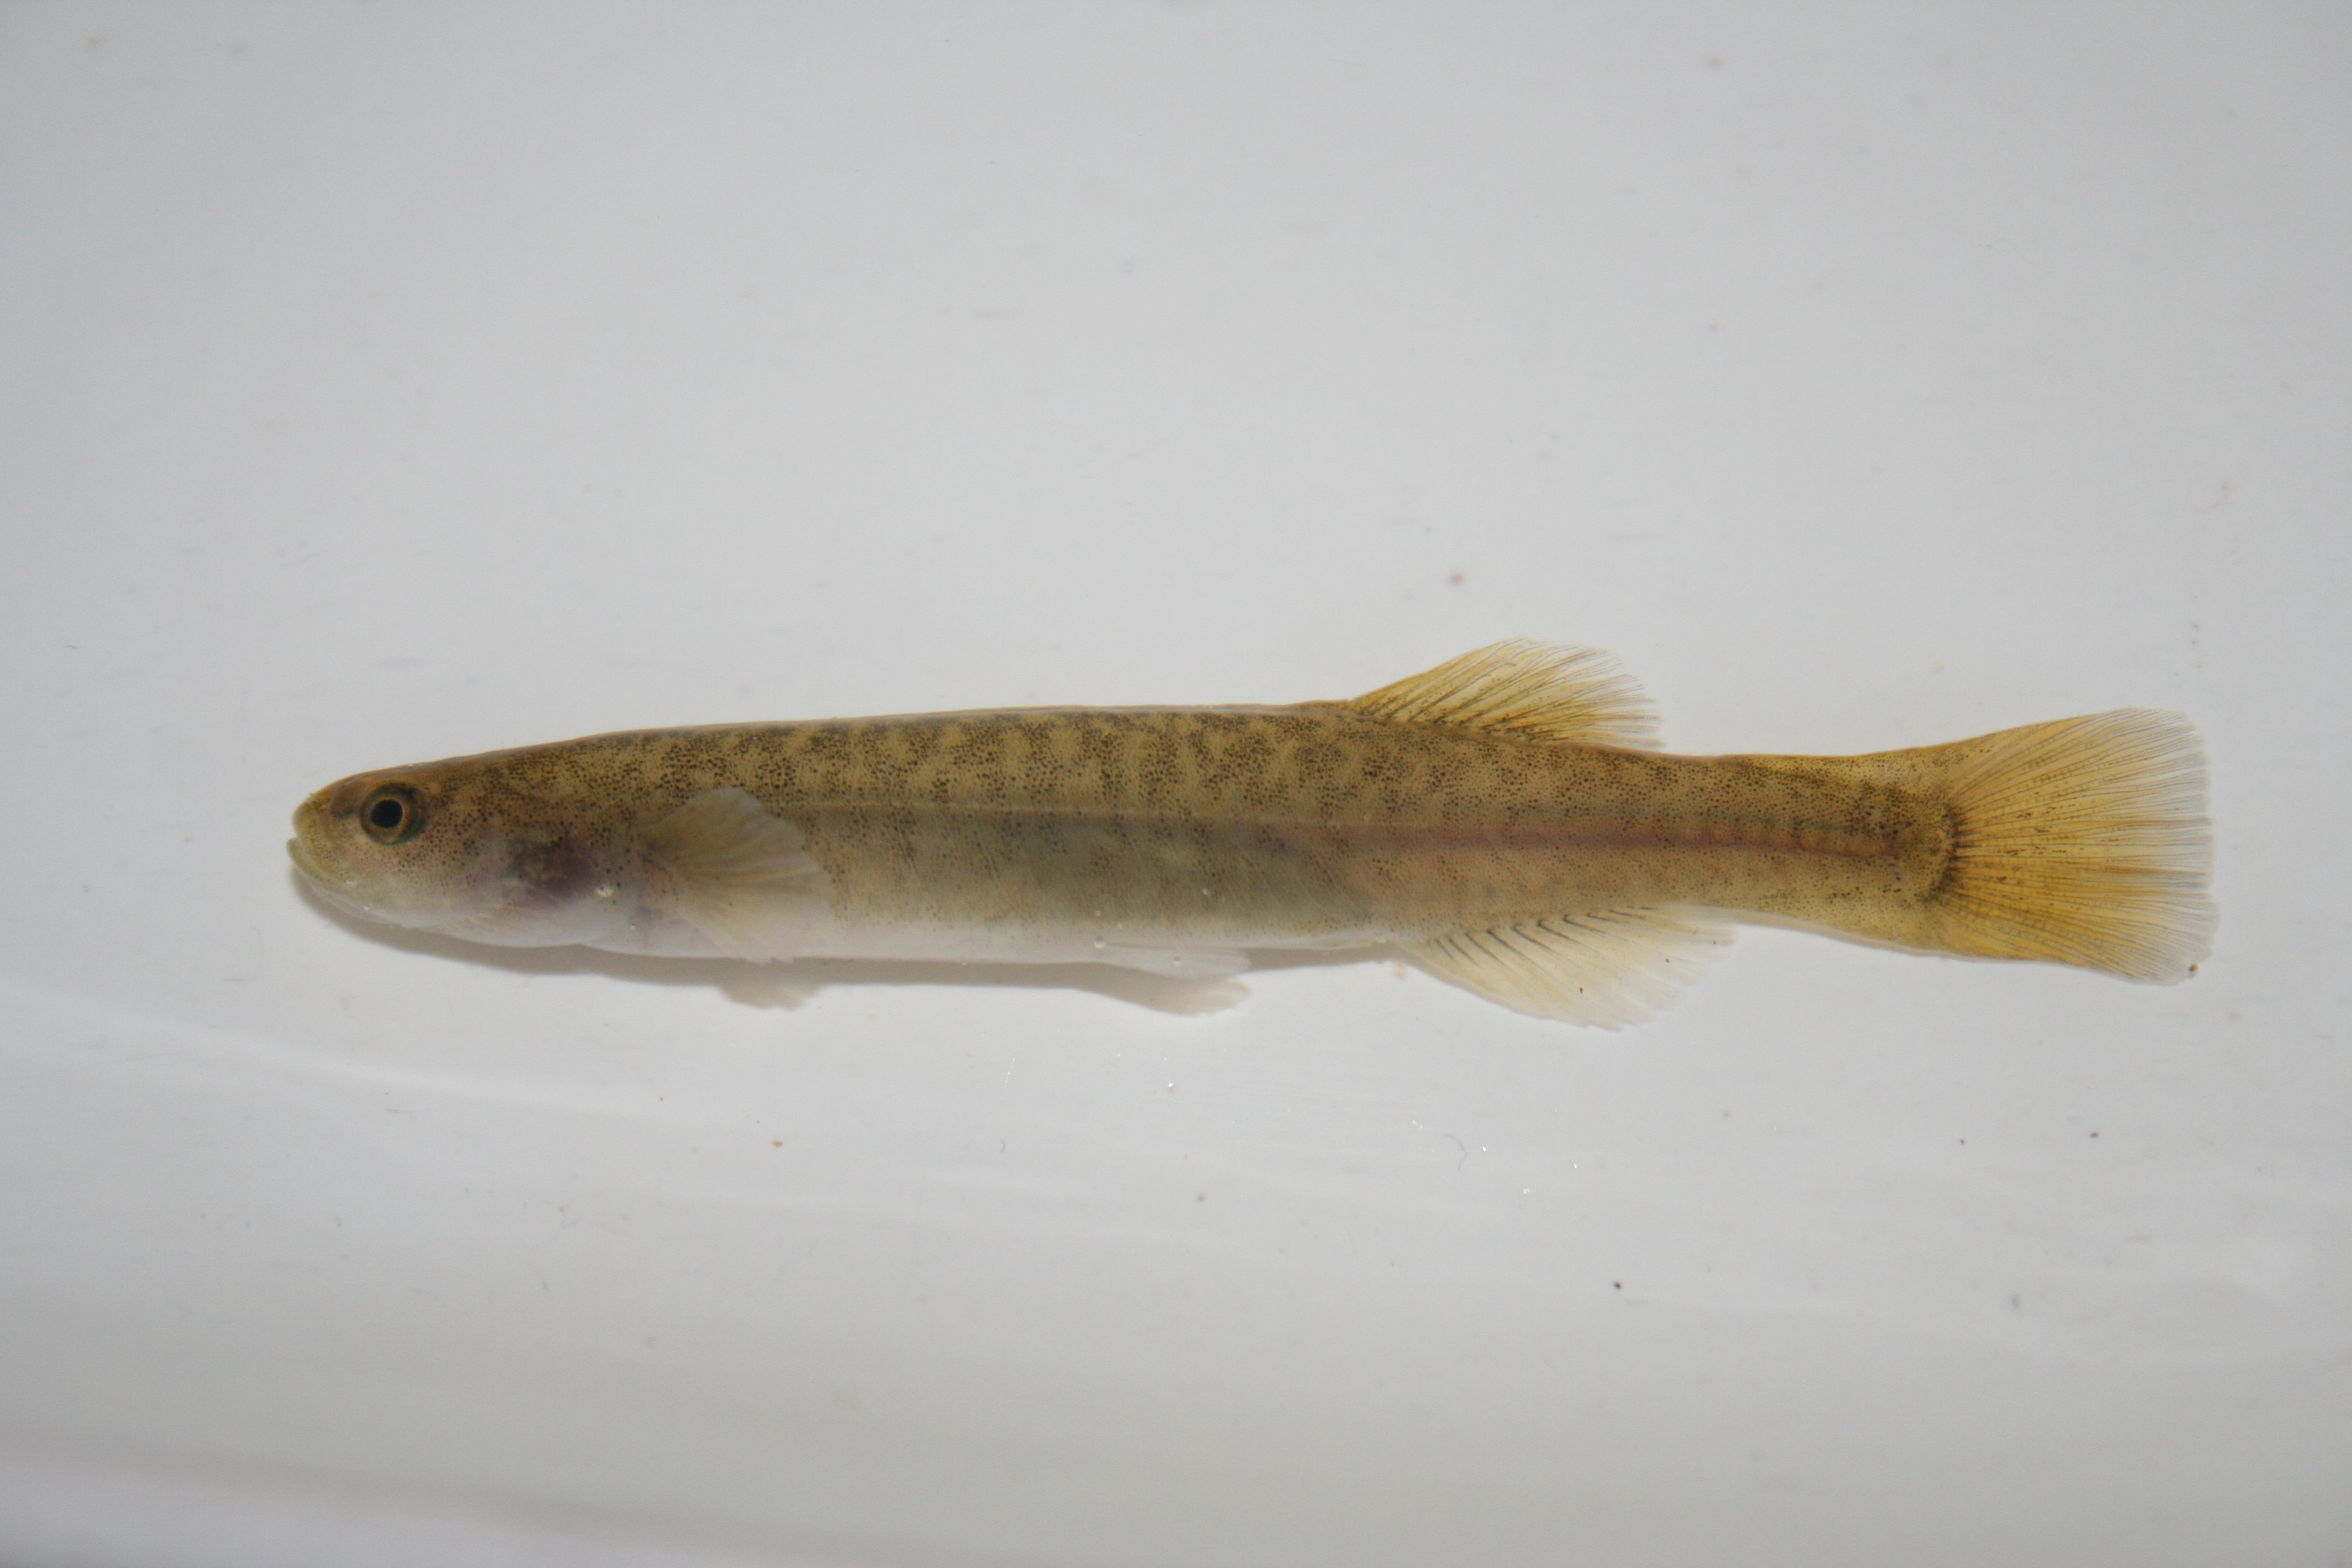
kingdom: Animalia
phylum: Chordata
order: Osmeriformes
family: Galaxiidae
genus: Galaxias
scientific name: Galaxias
